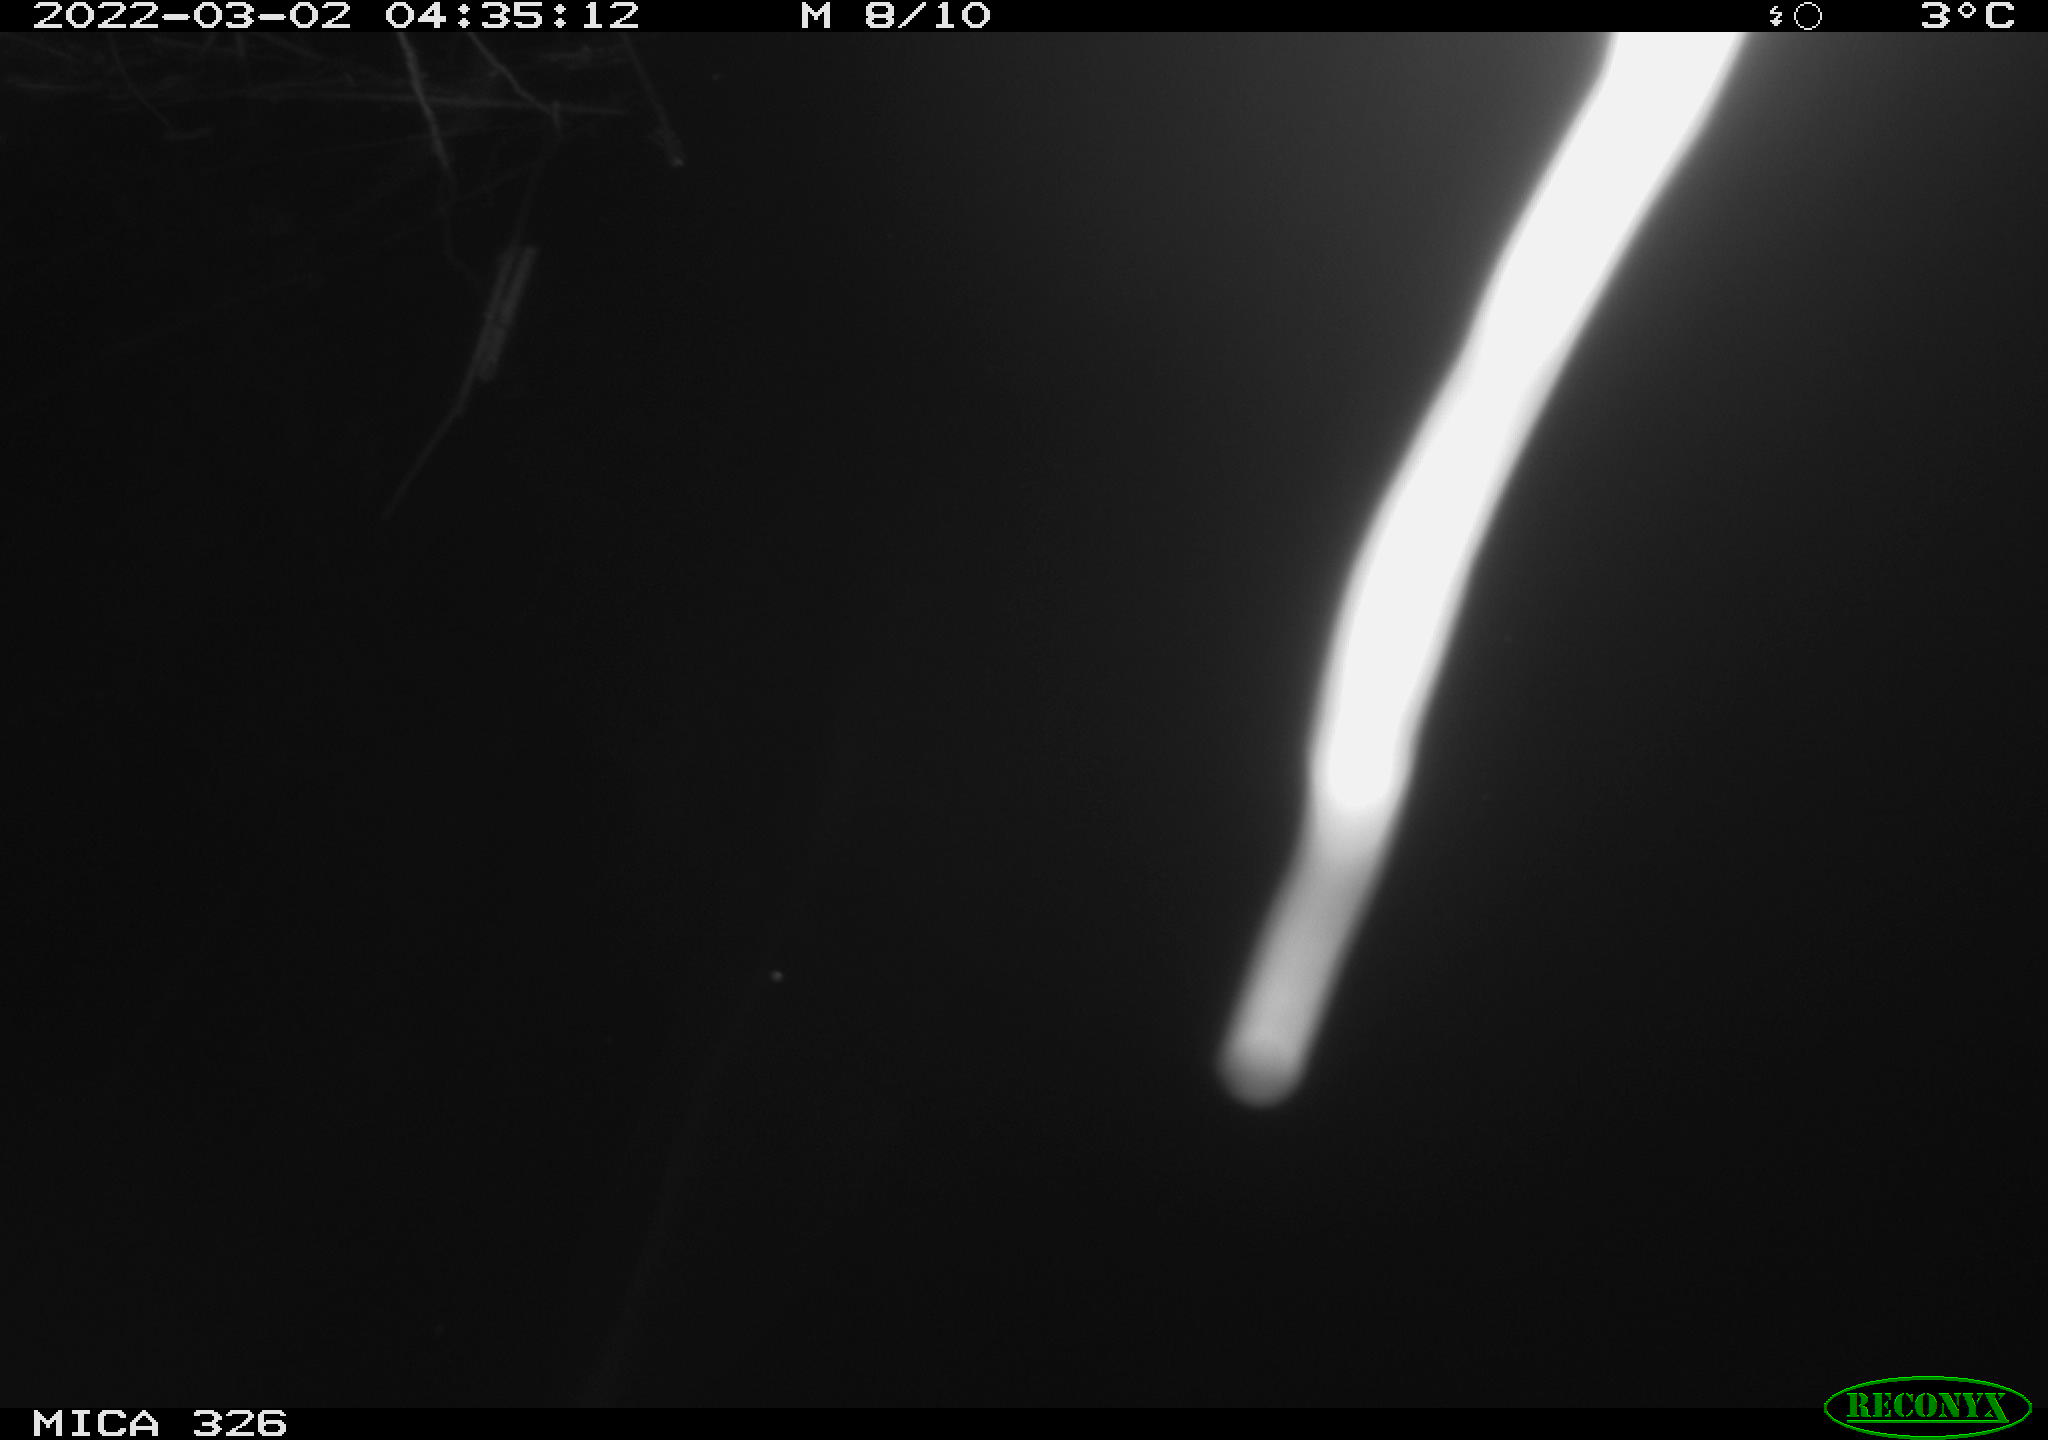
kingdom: Animalia
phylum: Chordata
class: Mammalia
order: Rodentia
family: Cricetidae
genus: Ondatra
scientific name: Ondatra zibethicus
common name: Muskrat
